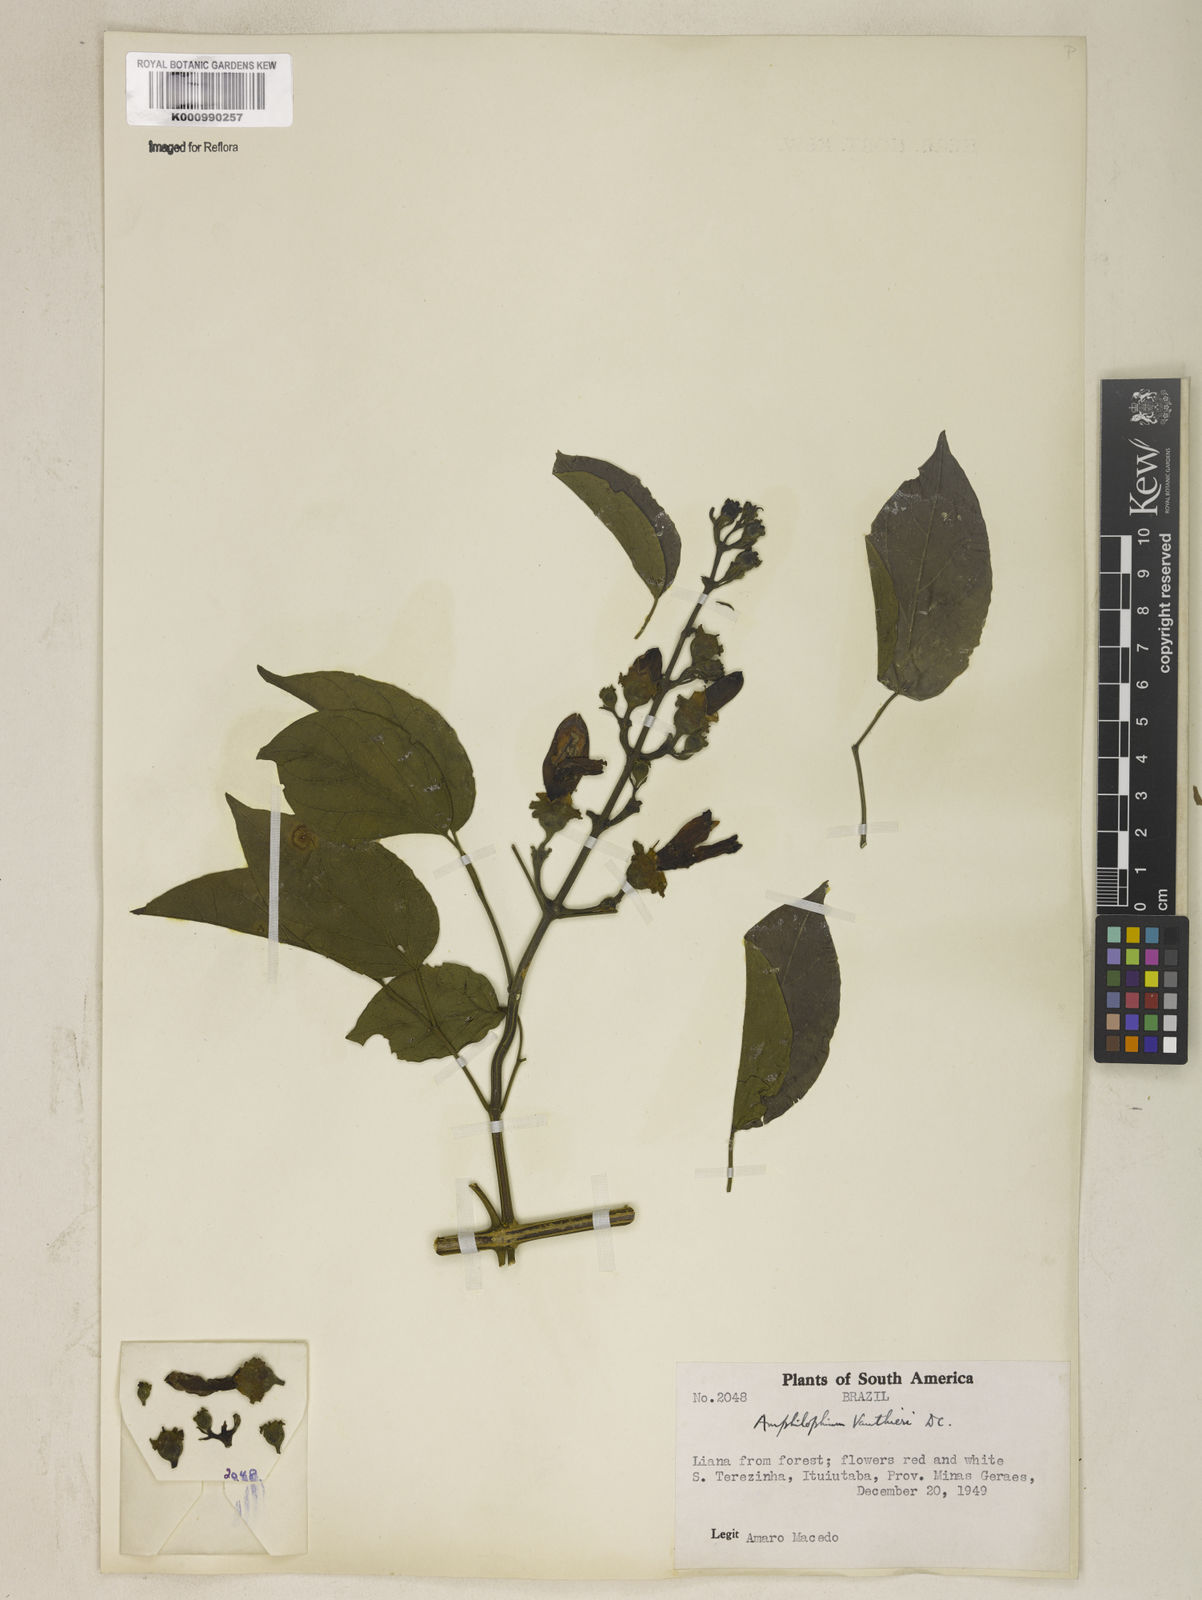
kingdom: Plantae
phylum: Tracheophyta
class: Magnoliopsida
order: Lamiales
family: Bignoniaceae
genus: Amphilophium
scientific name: Amphilophium paniculatum
